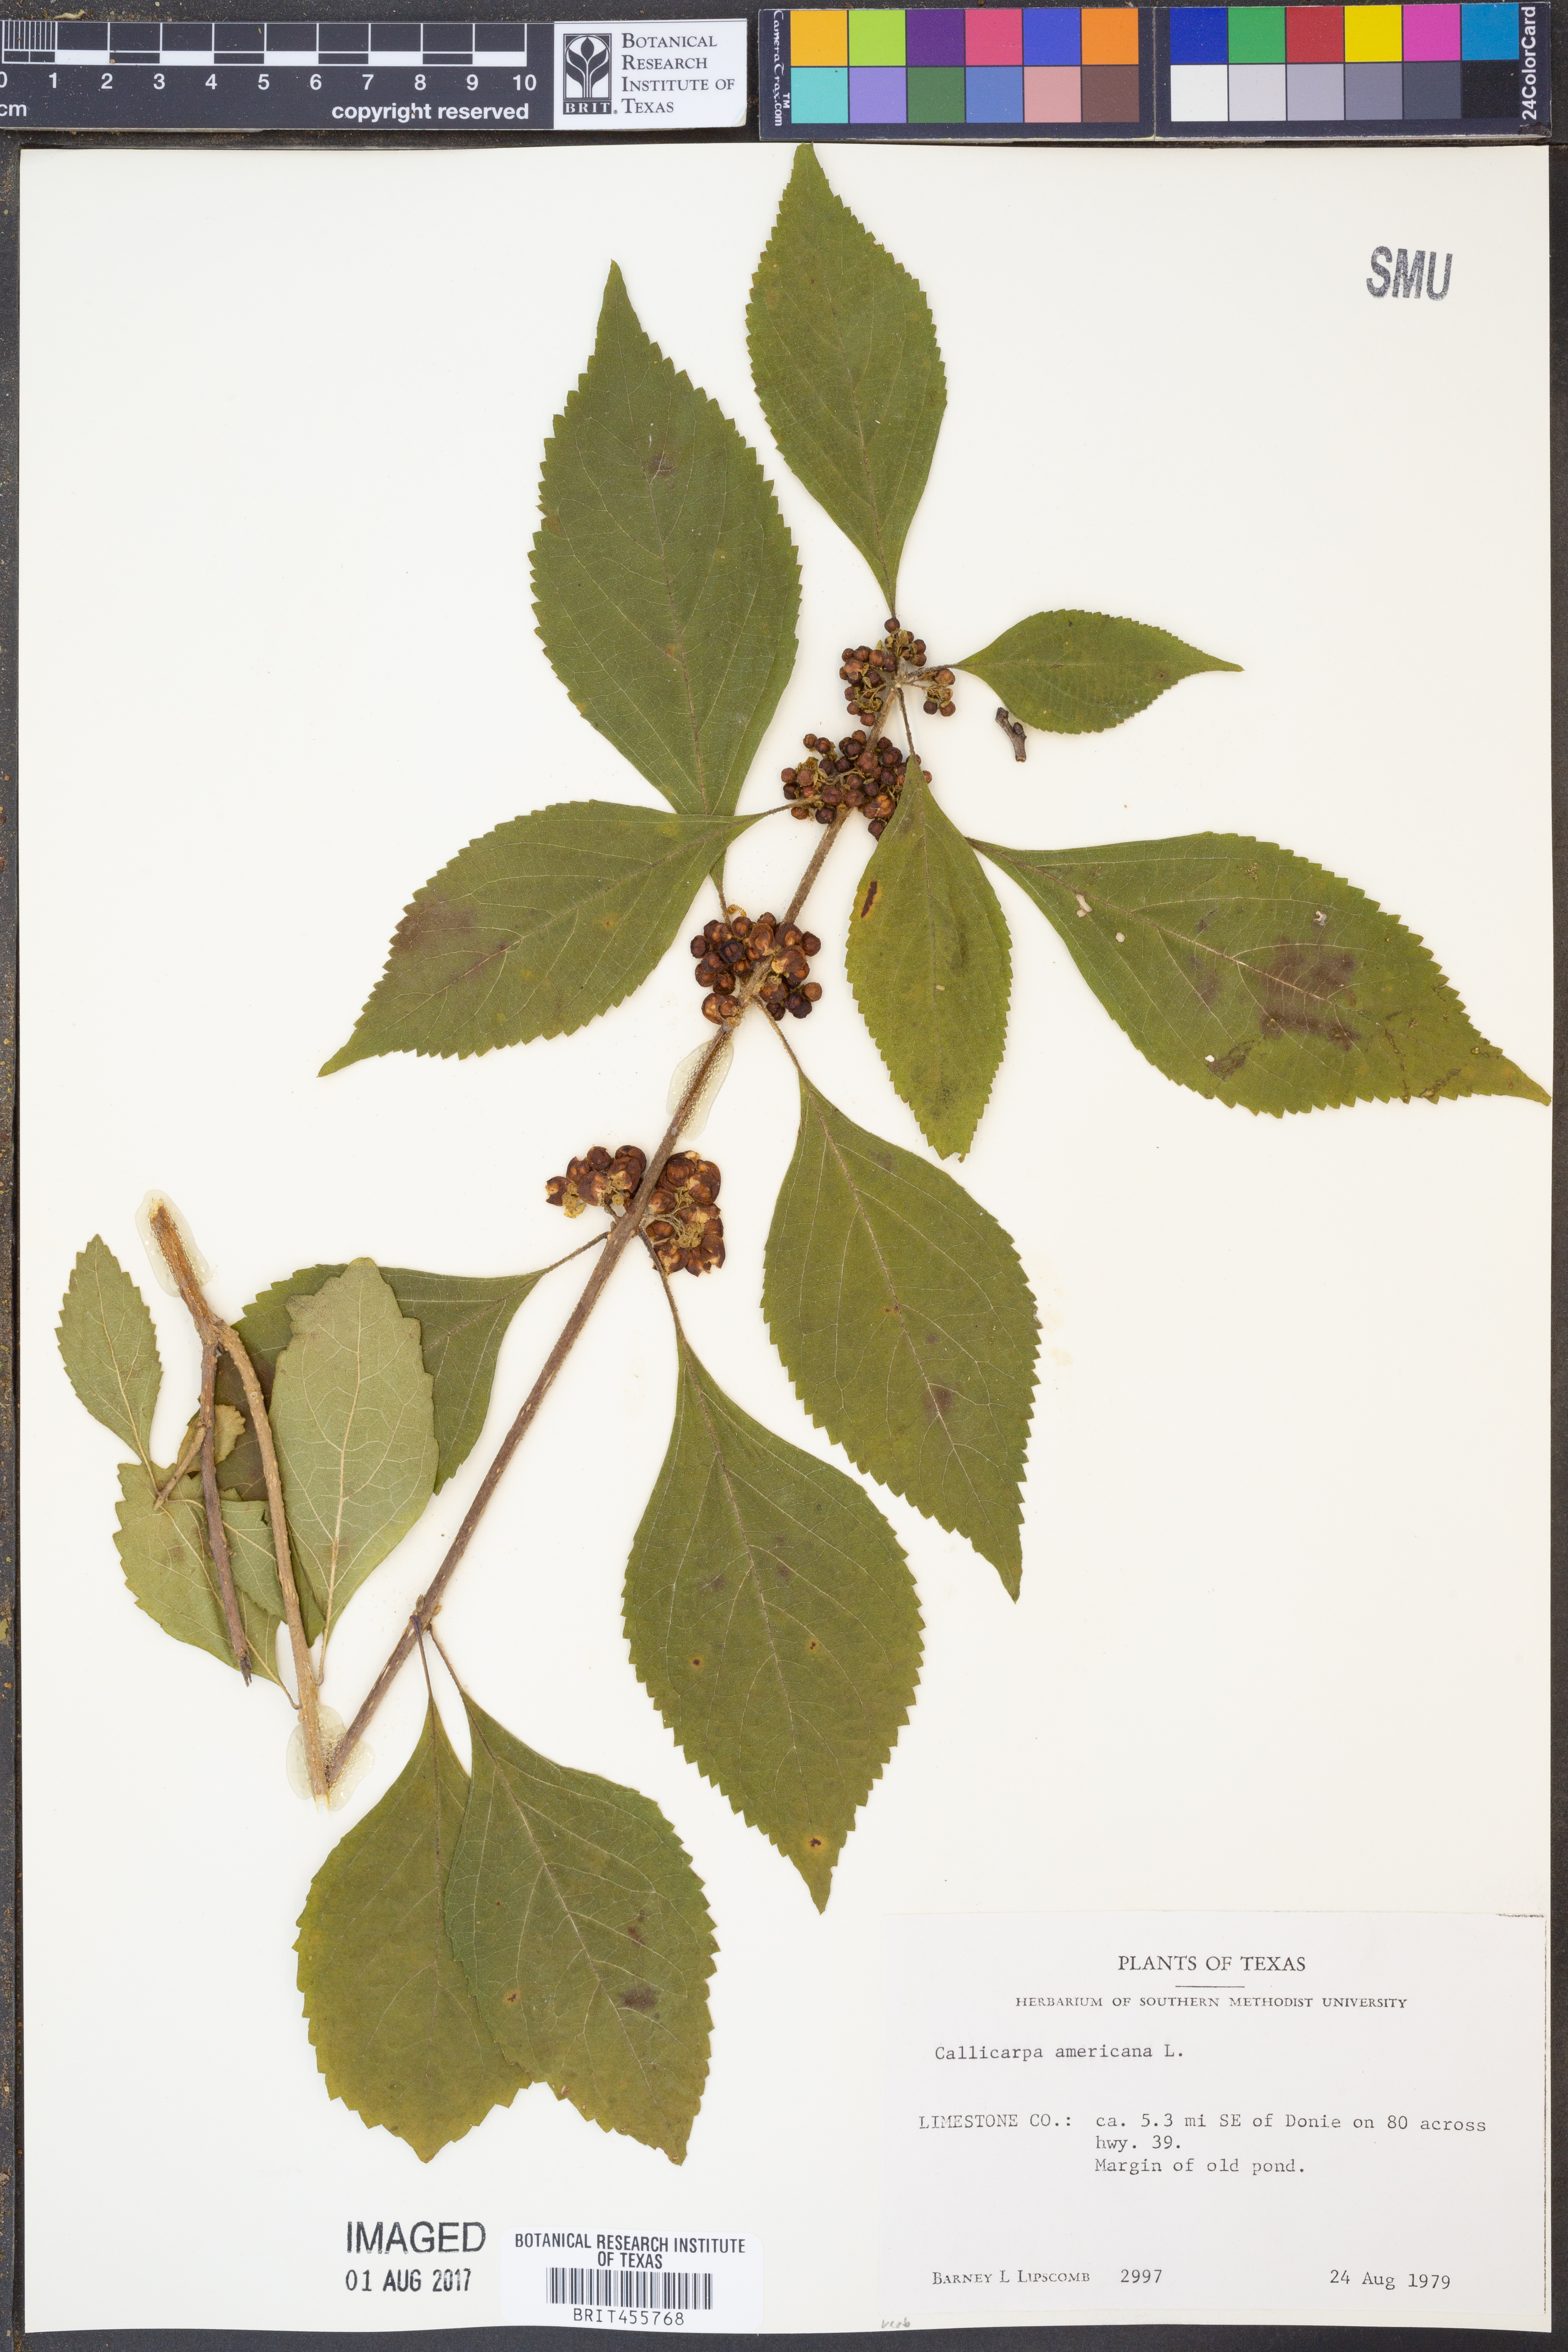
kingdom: Plantae
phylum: Tracheophyta
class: Magnoliopsida
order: Lamiales
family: Lamiaceae
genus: Callicarpa
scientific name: Callicarpa americana
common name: American beautyberry
